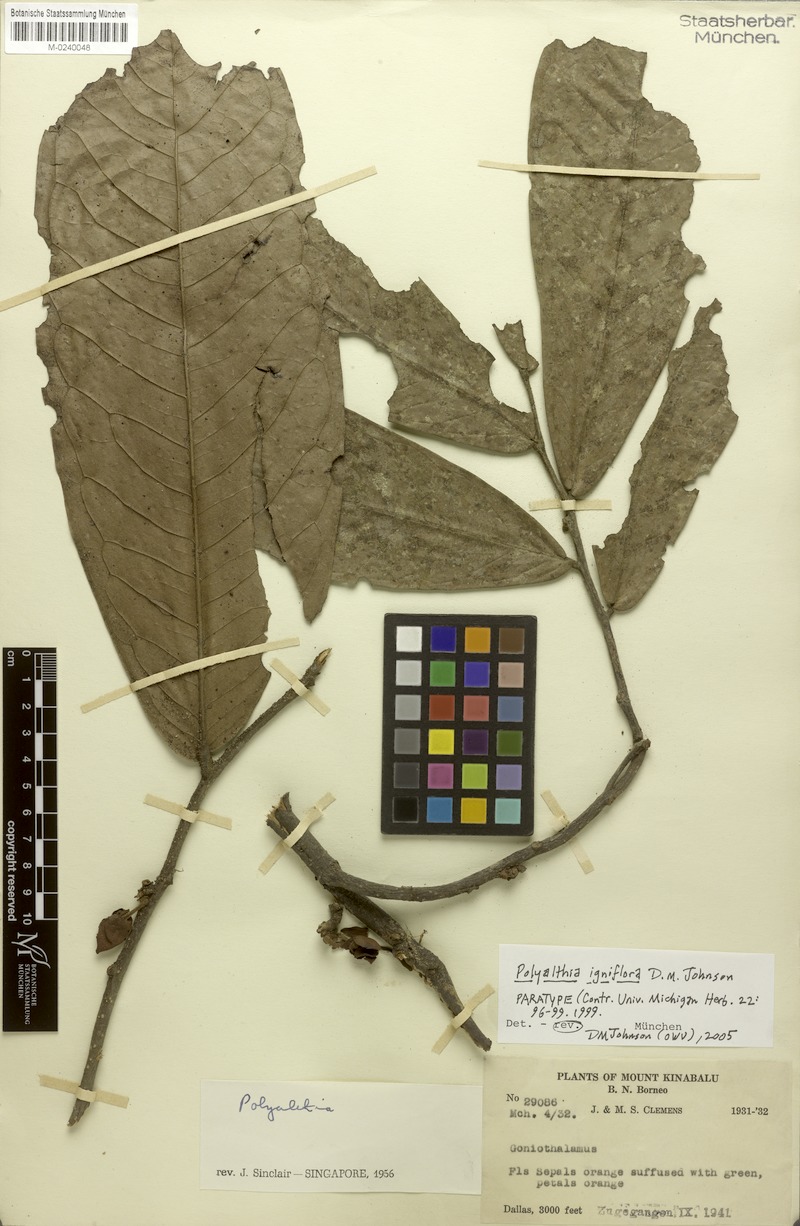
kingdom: Plantae
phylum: Tracheophyta
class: Magnoliopsida
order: Magnoliales
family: Annonaceae
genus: Polyalthia
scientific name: Polyalthia igniflora
